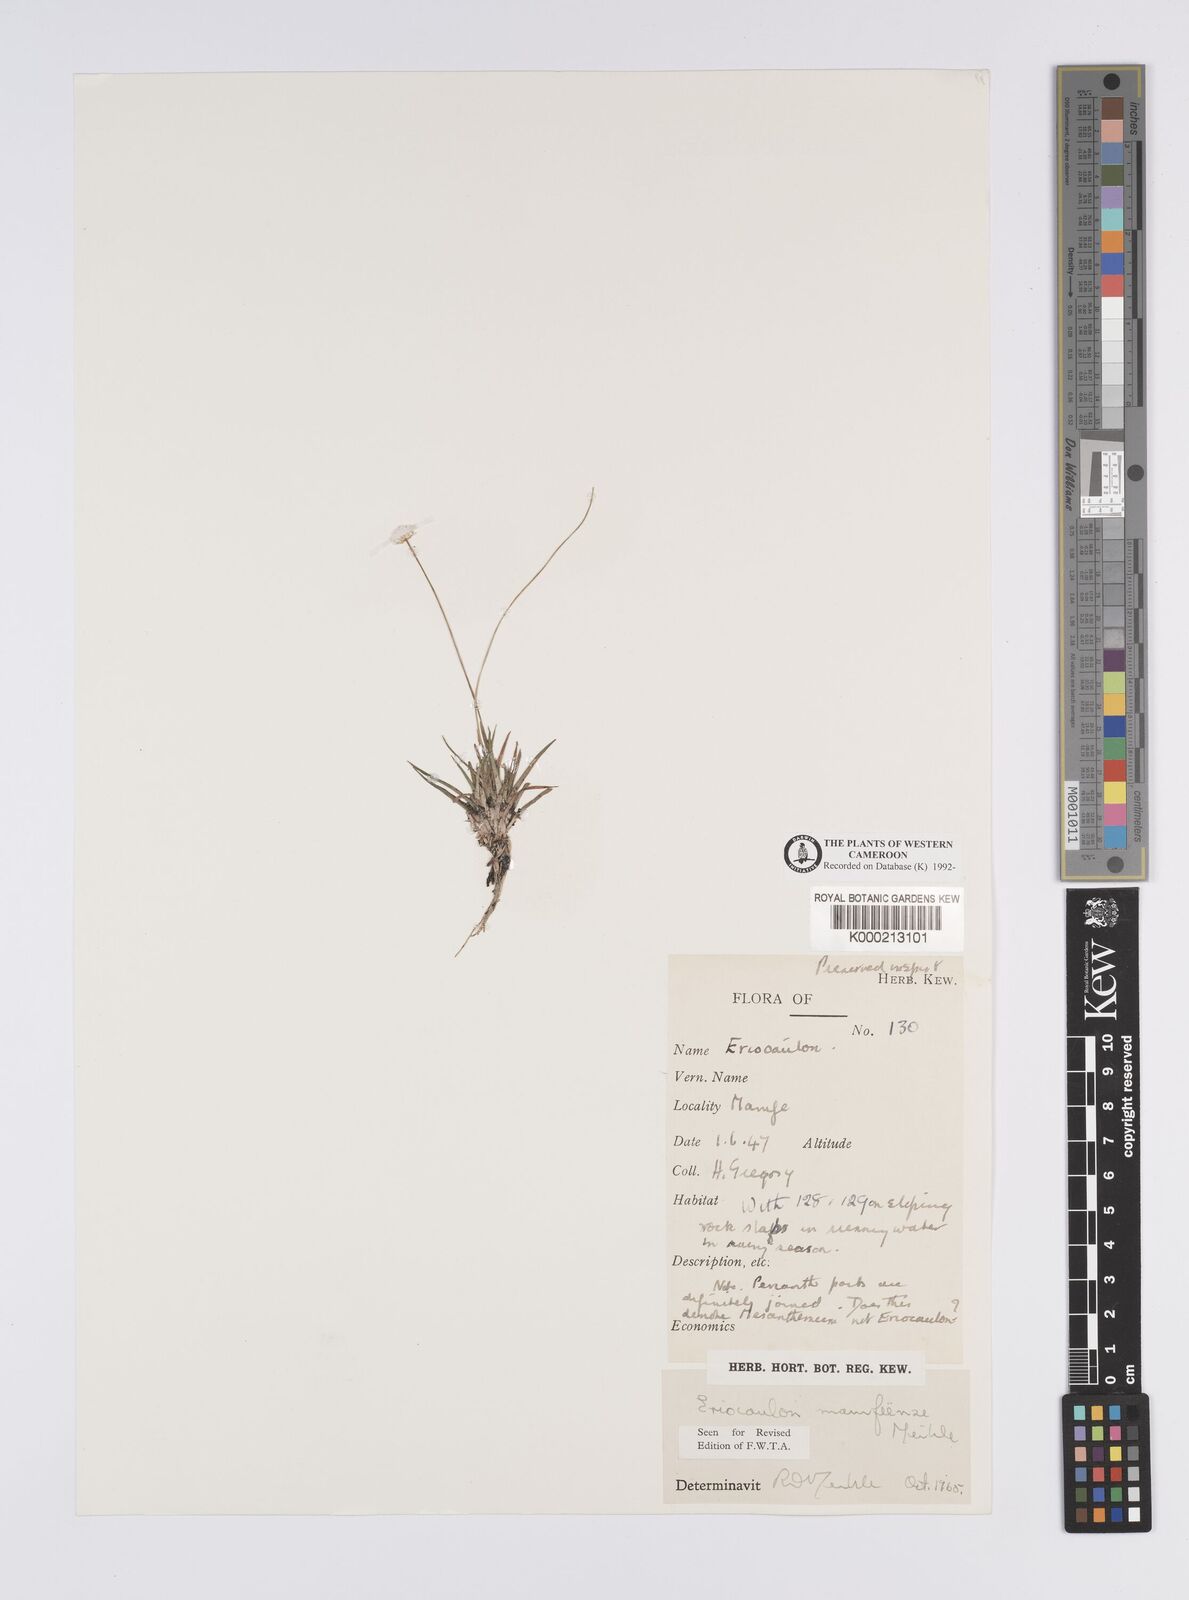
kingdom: Plantae
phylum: Tracheophyta
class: Liliopsida
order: Poales
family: Eriocaulaceae
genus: Eriocaulon
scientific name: Eriocaulon
